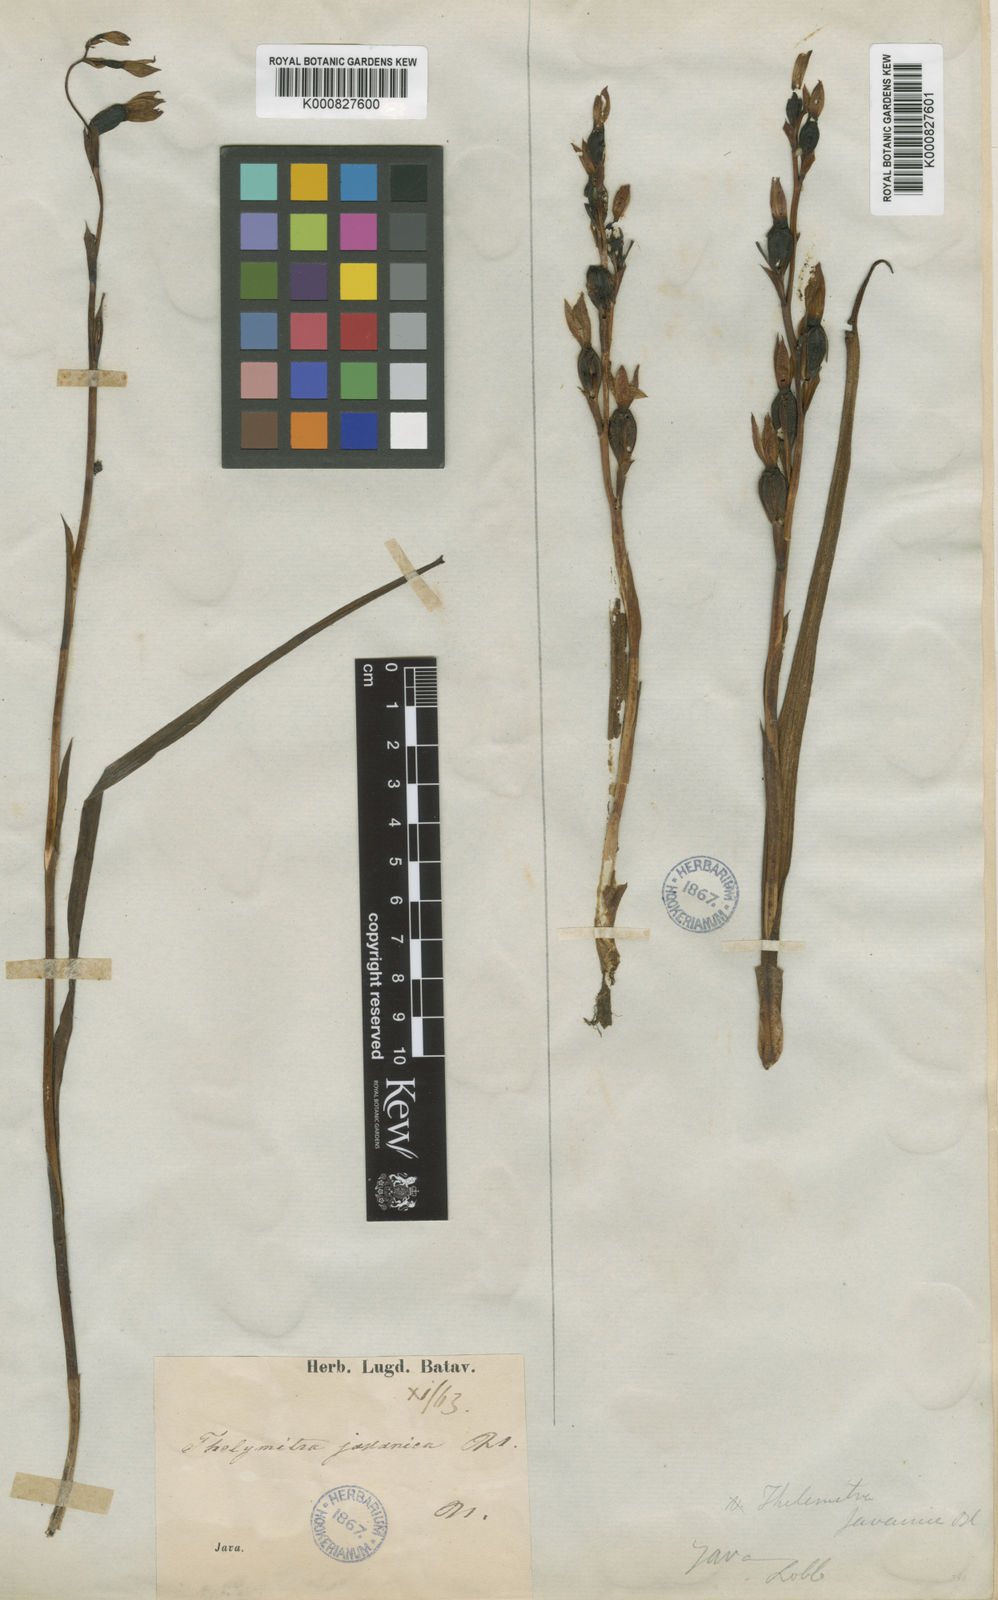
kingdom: Plantae
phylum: Tracheophyta
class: Liliopsida
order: Asparagales
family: Orchidaceae
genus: Thelymitra
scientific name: Thelymitra javanica
